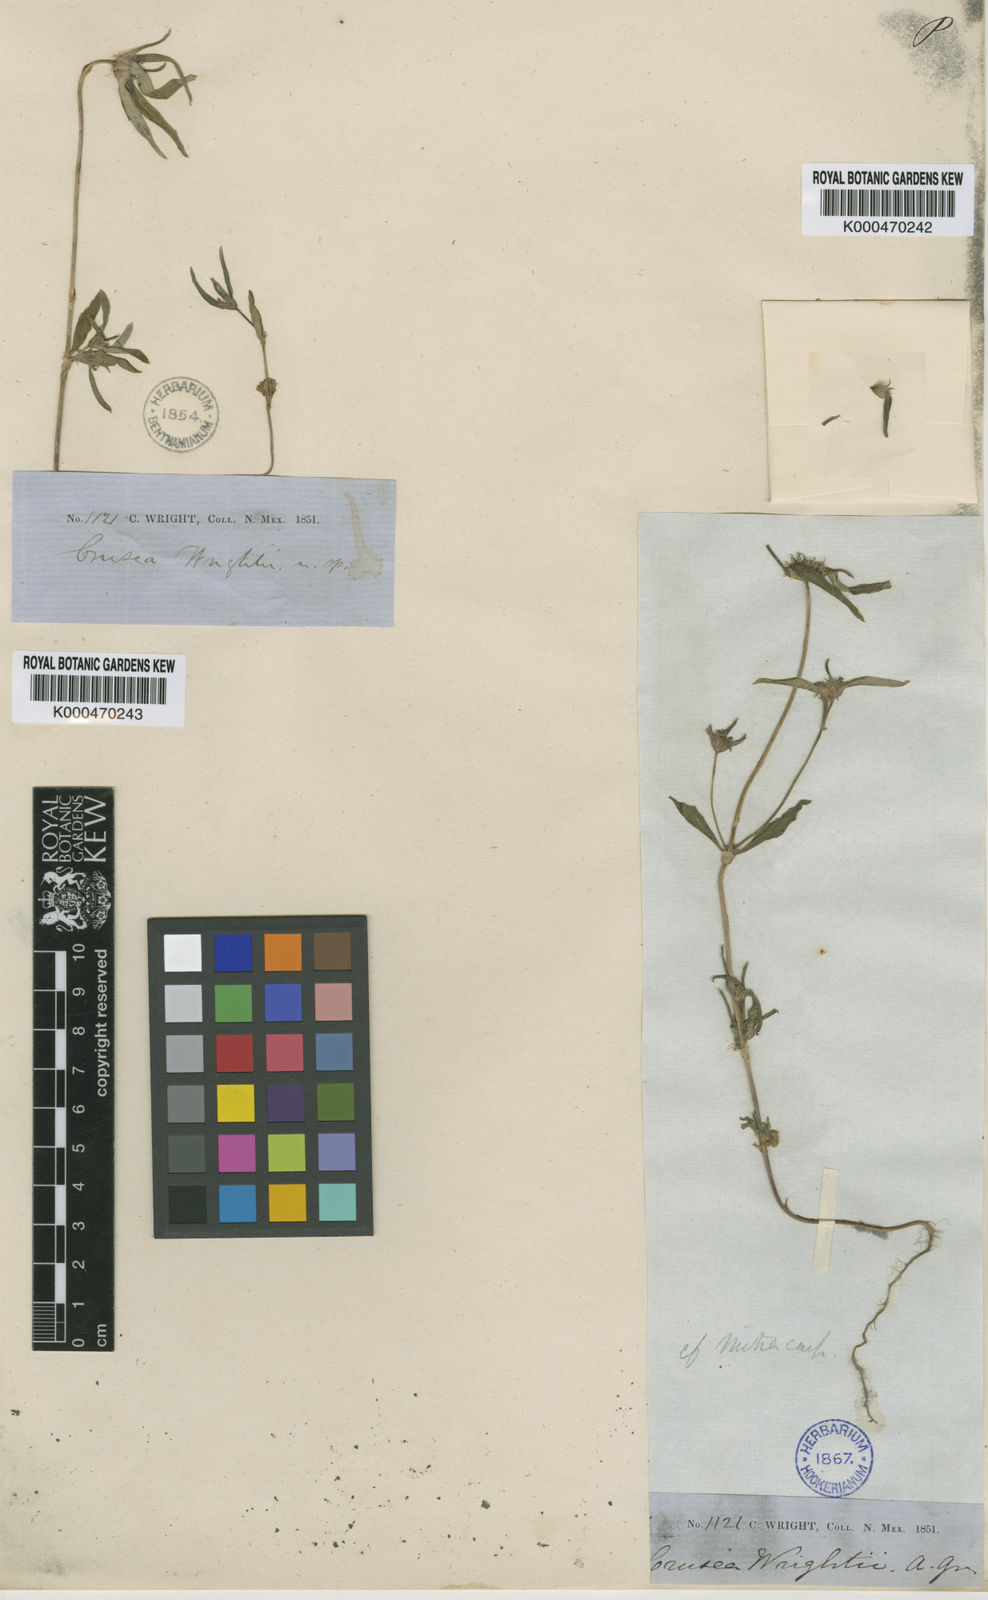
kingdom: Plantae
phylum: Tracheophyta
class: Magnoliopsida
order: Gentianales
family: Rubiaceae
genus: Crusea
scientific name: Crusea wrightii
